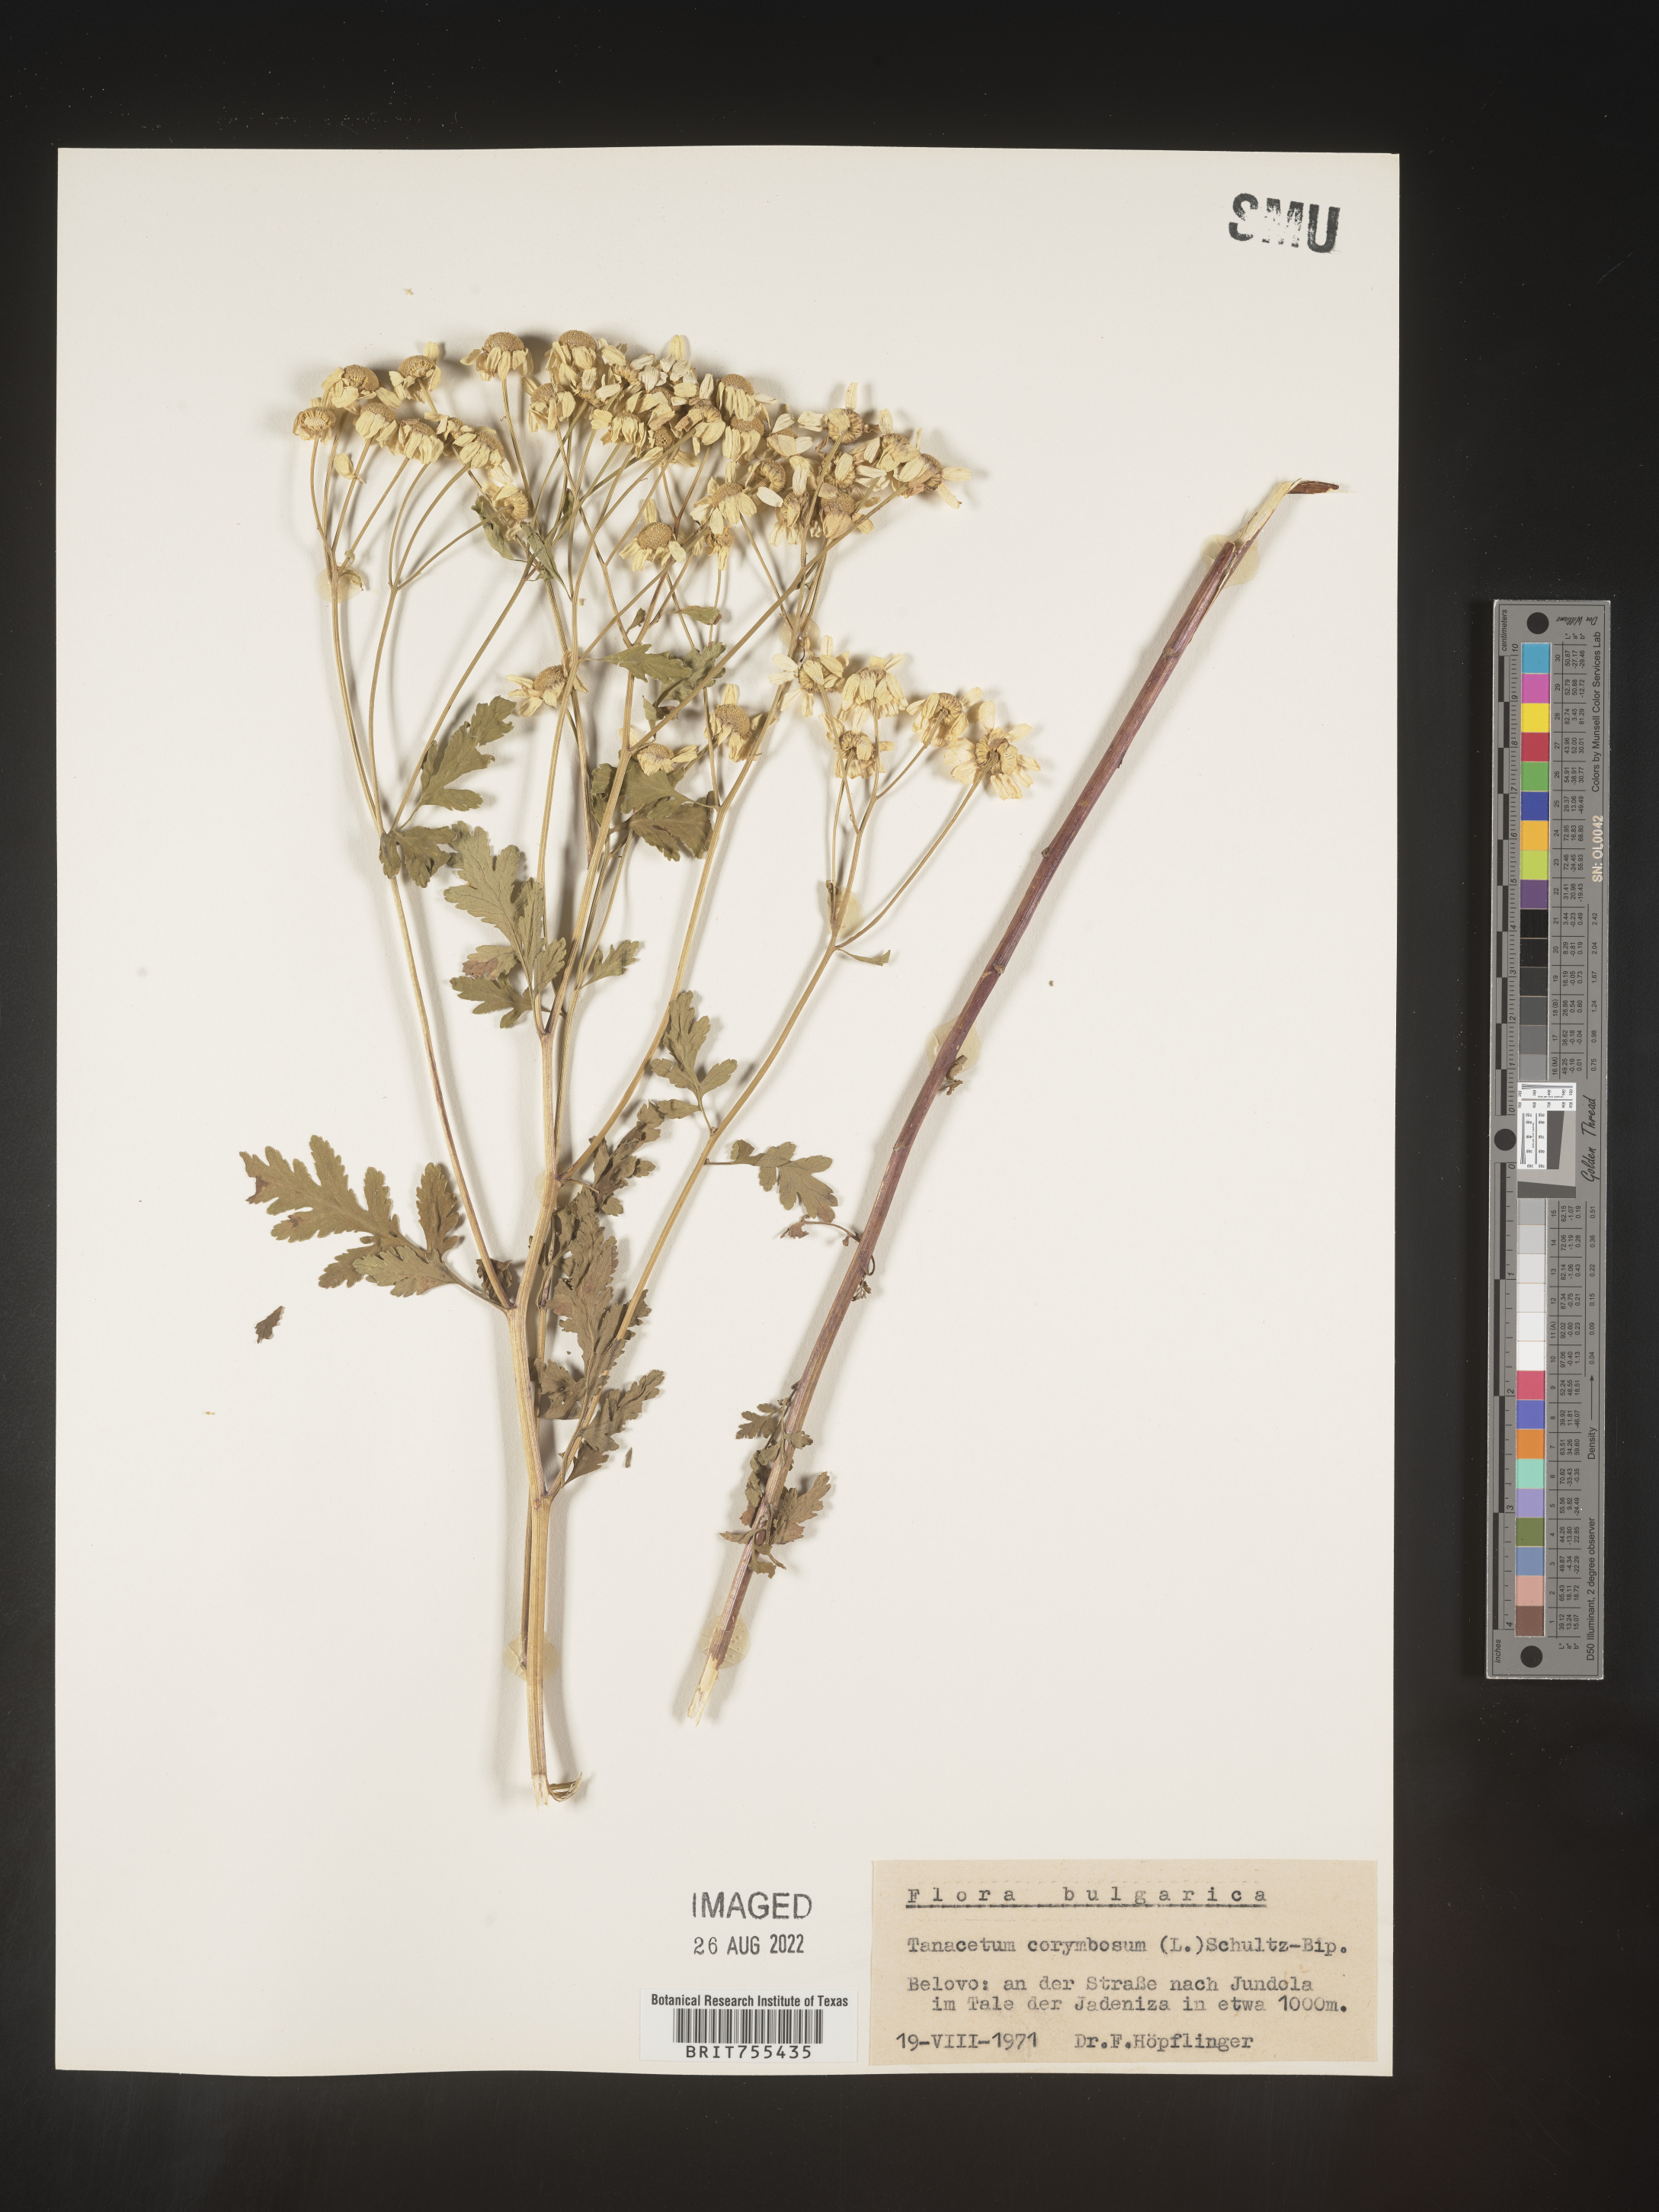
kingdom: Plantae
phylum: Tracheophyta
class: Magnoliopsida
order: Asterales
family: Asteraceae
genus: Tanacetum
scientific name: Tanacetum
